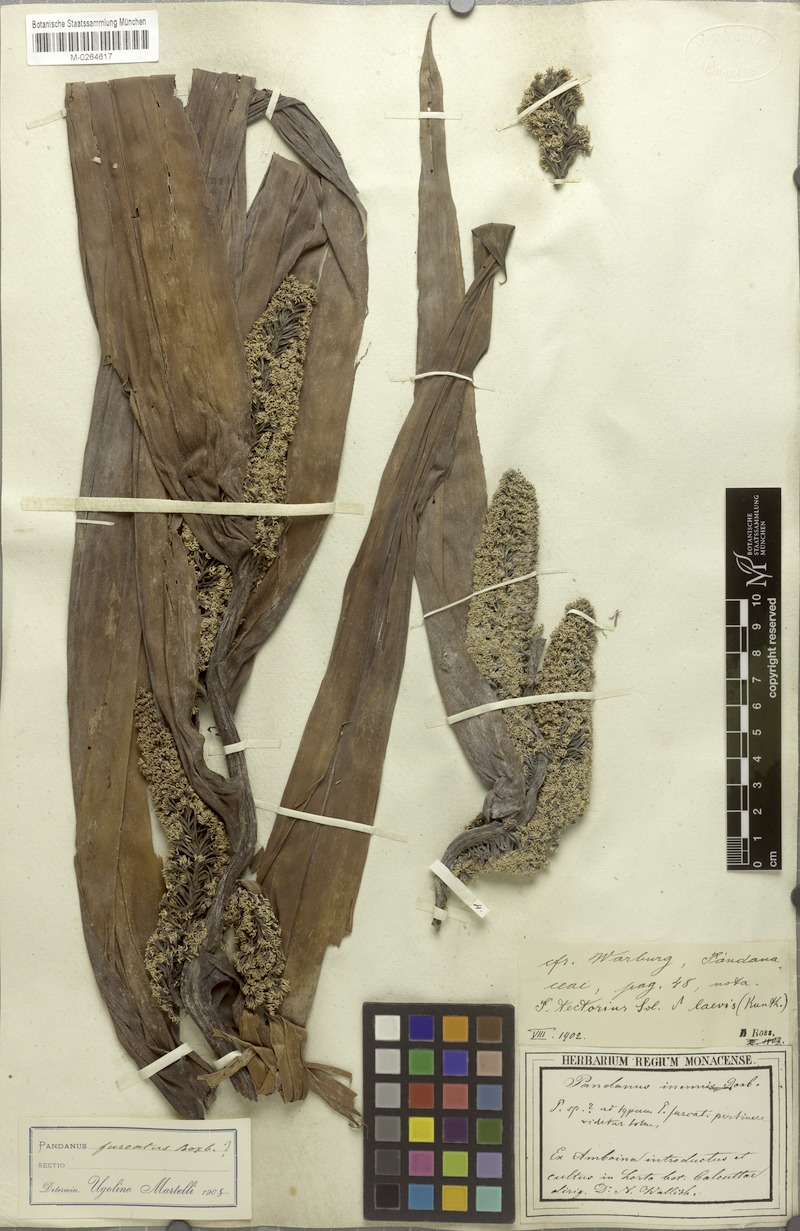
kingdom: Plantae
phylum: Tracheophyta
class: Liliopsida
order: Pandanales
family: Pandanaceae
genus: Pandanus
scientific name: Pandanus tectorius
